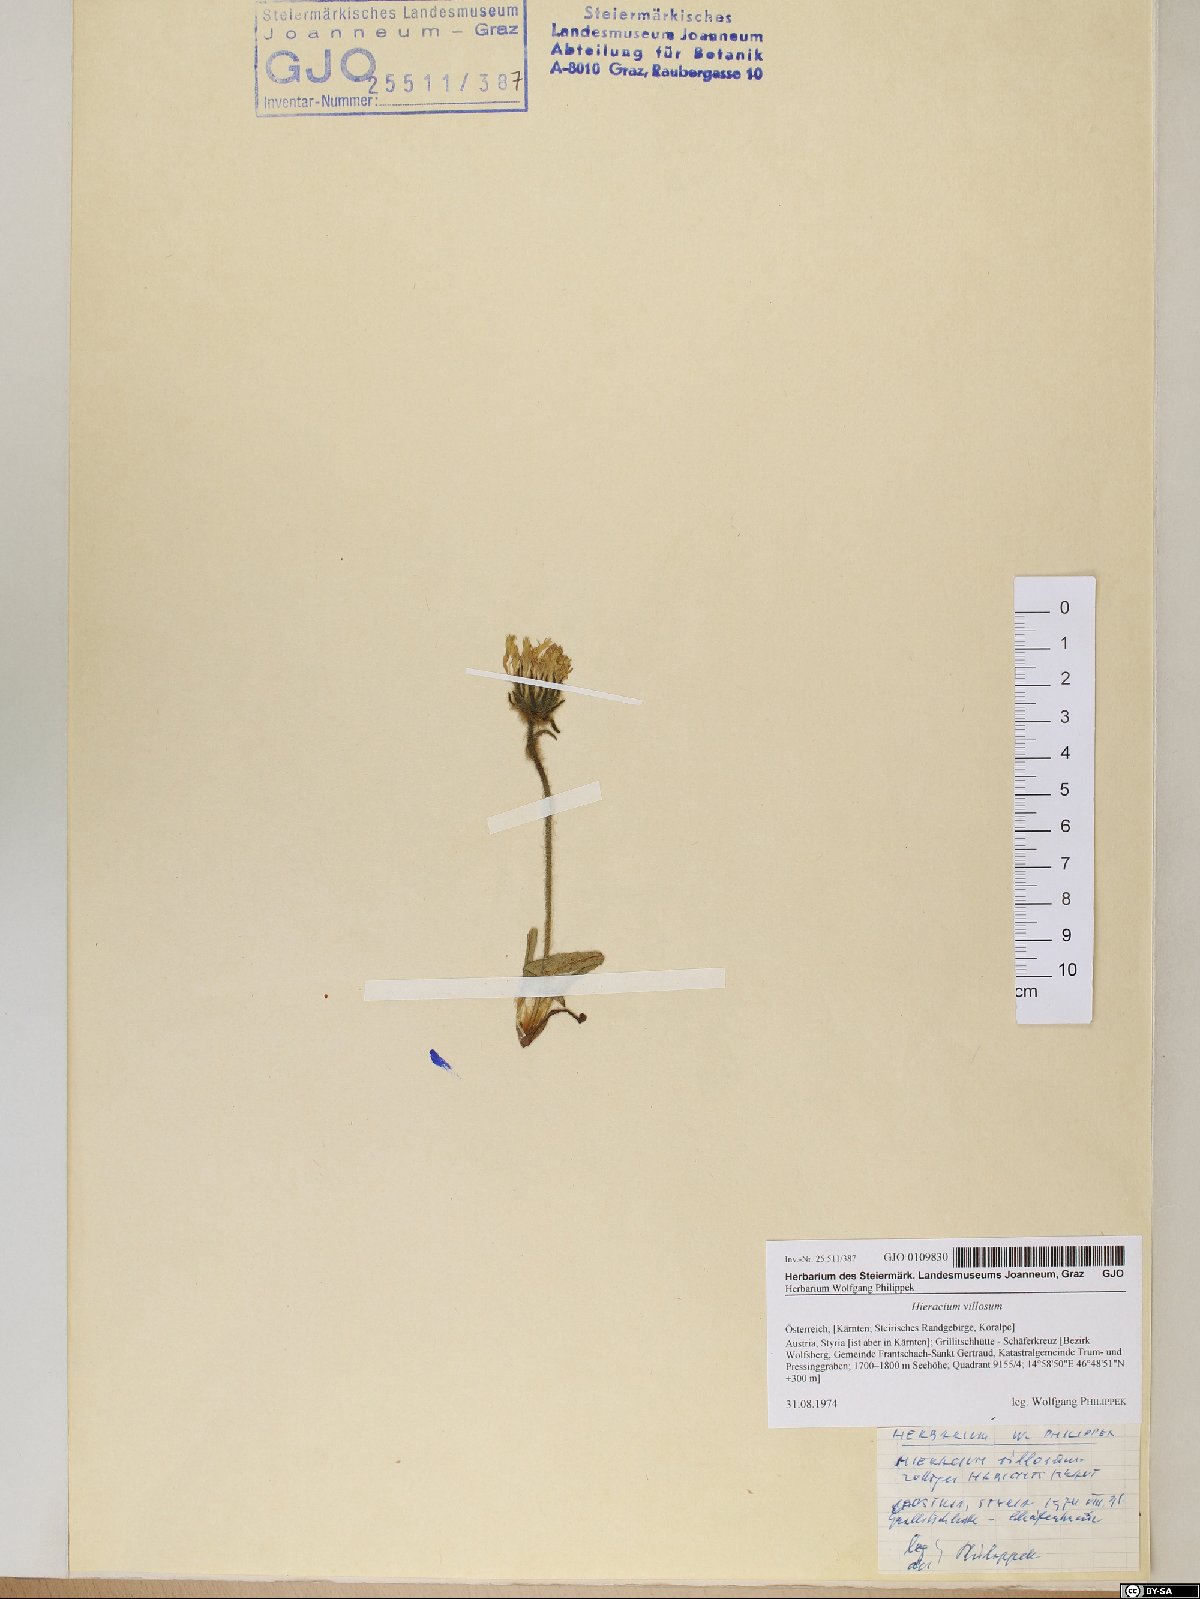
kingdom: Plantae
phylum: Tracheophyta
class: Magnoliopsida
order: Asterales
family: Asteraceae
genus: Hieracium
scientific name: Hieracium villosum
